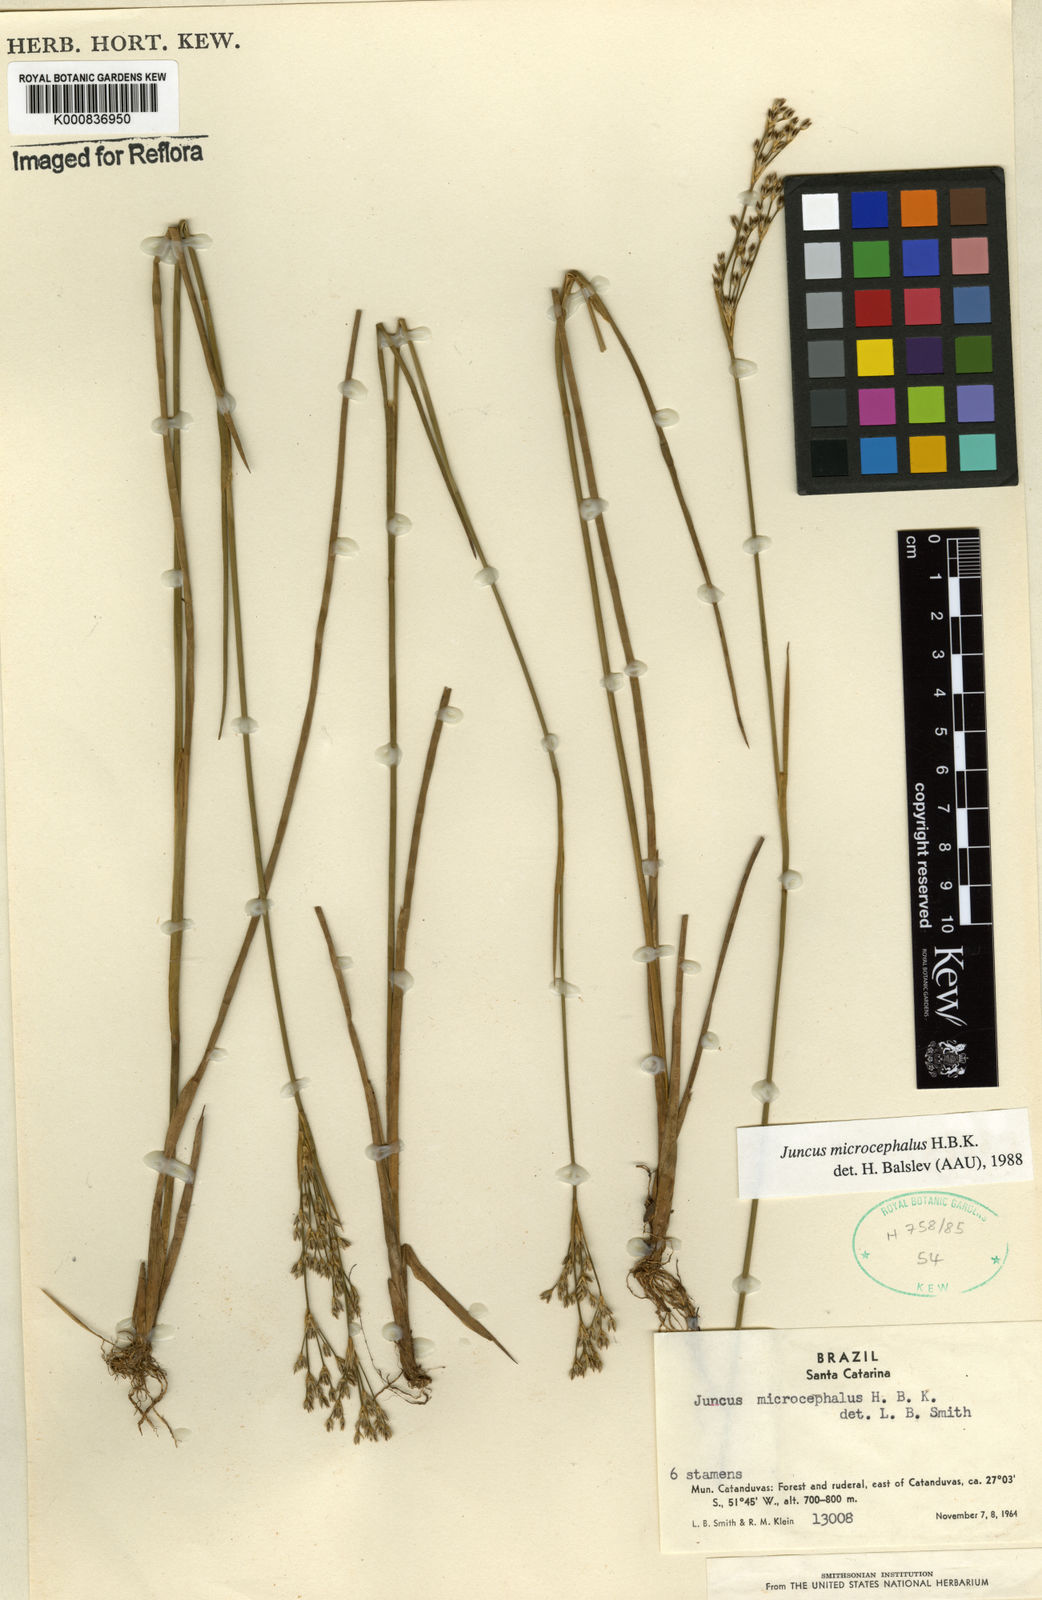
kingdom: Plantae
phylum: Tracheophyta
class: Liliopsida
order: Poales
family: Juncaceae
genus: Juncus
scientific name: Juncus microcephalus
